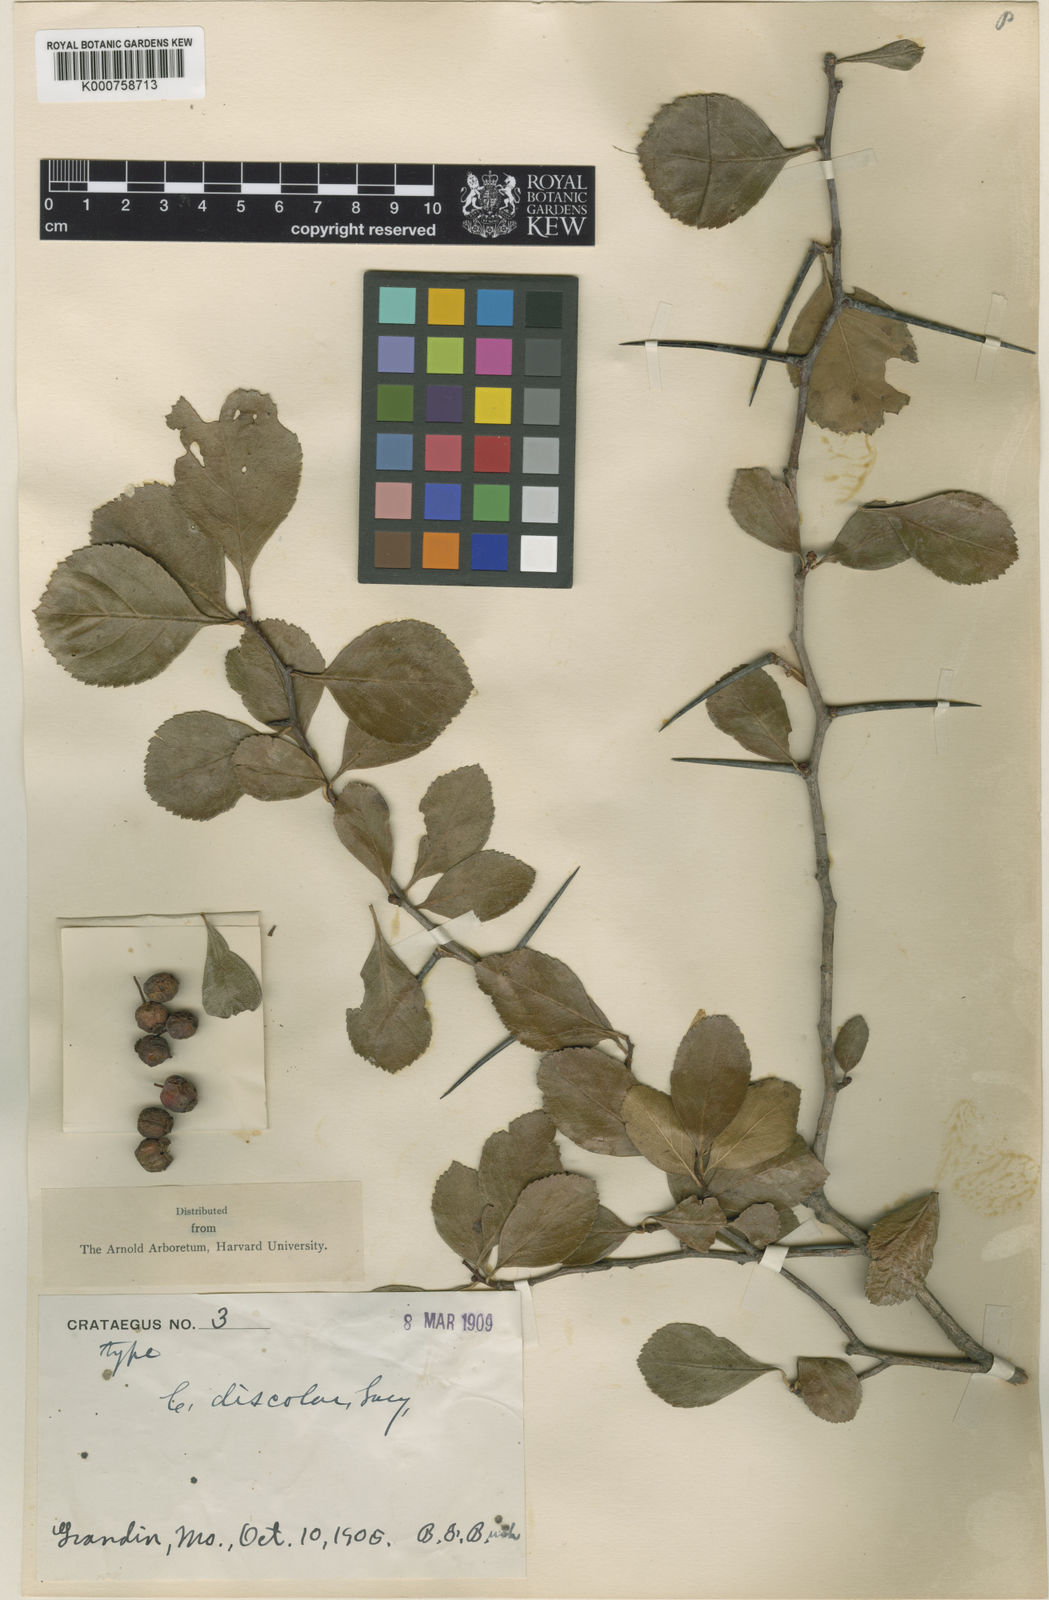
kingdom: Plantae
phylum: Tracheophyta
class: Magnoliopsida
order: Rosales
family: Rosaceae
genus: Crataegus
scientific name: Crataegus reverchonii
